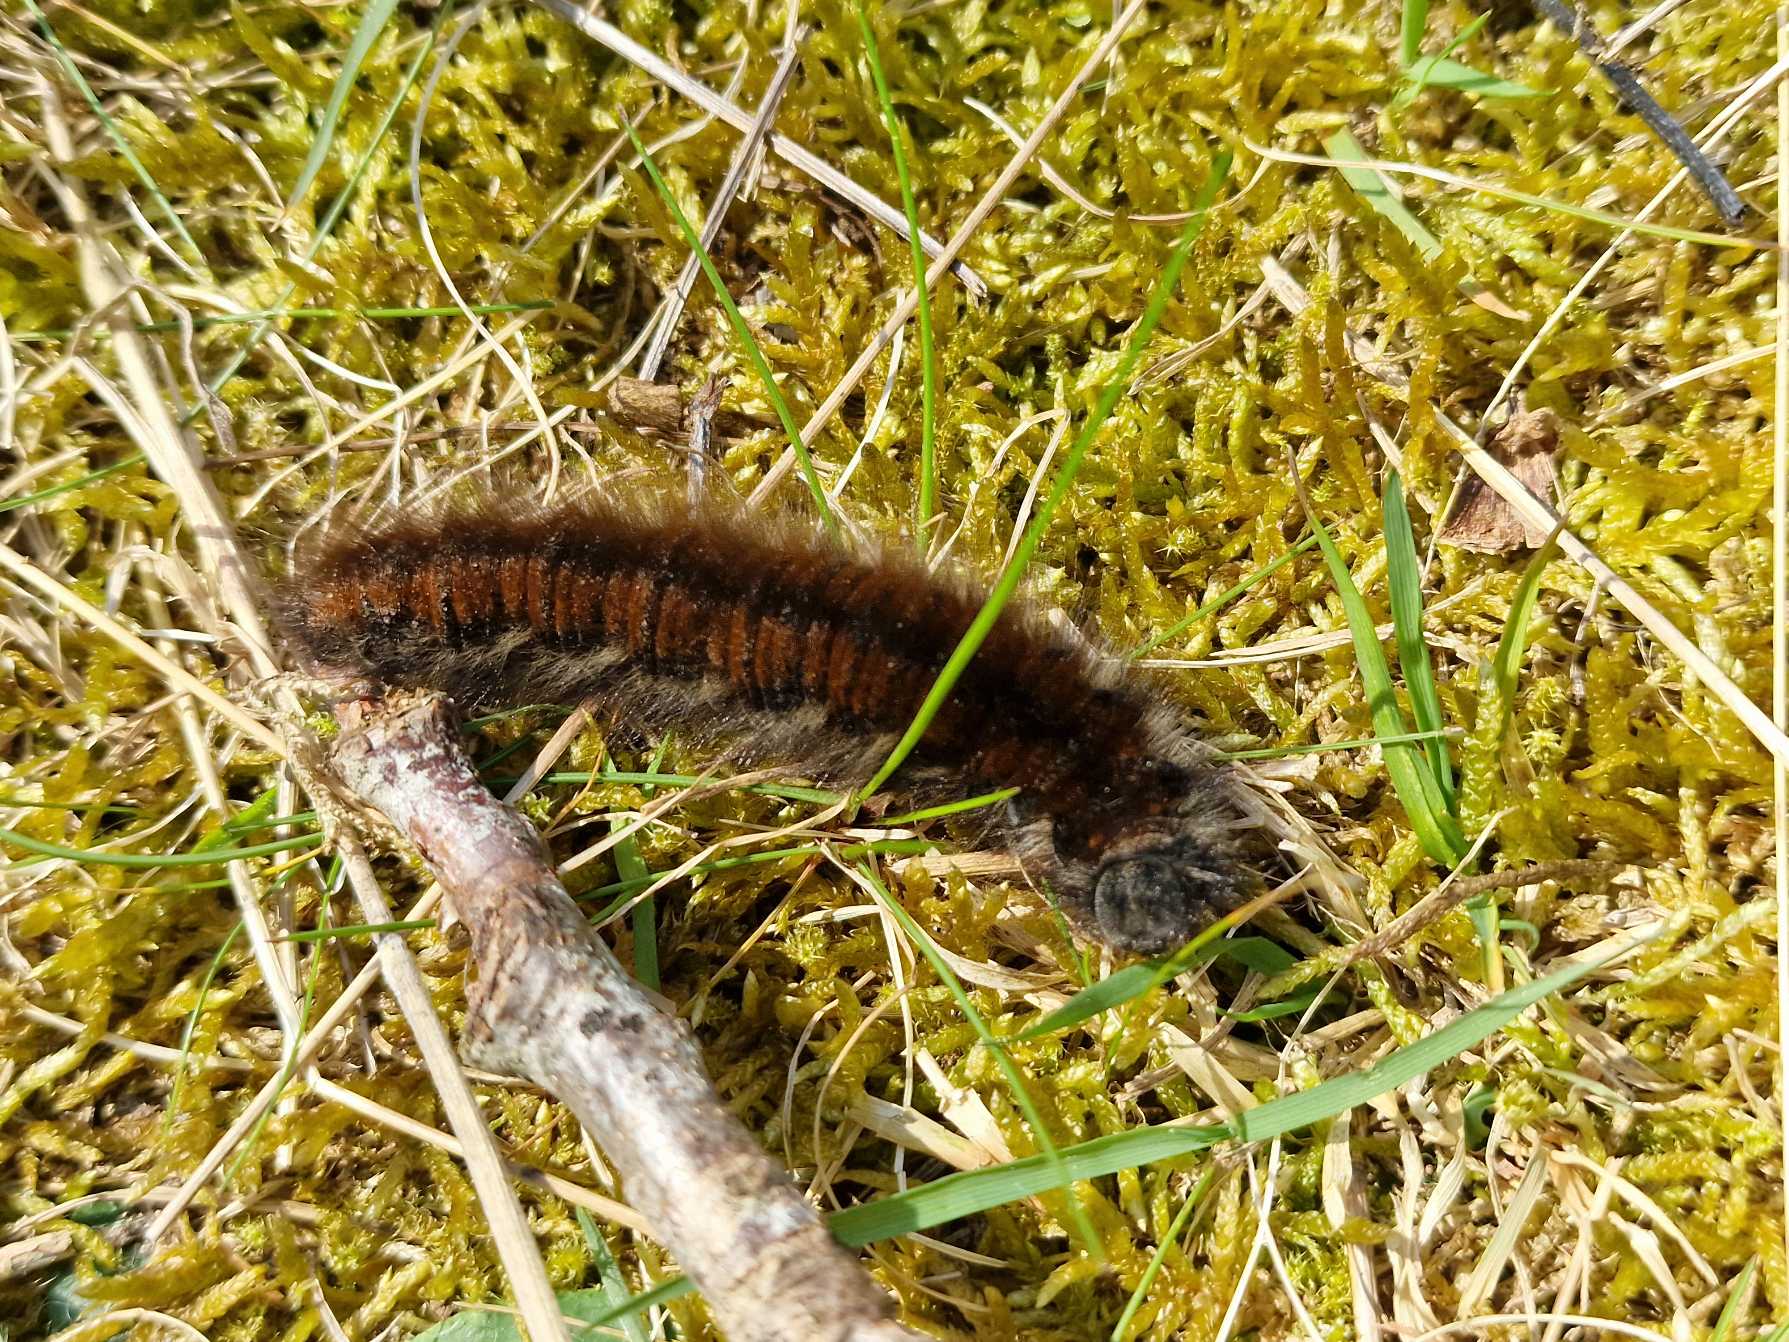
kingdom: Animalia
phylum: Arthropoda
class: Insecta
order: Lepidoptera
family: Lasiocampidae
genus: Macrothylacia
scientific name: Macrothylacia rubi
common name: Brombærspinder
